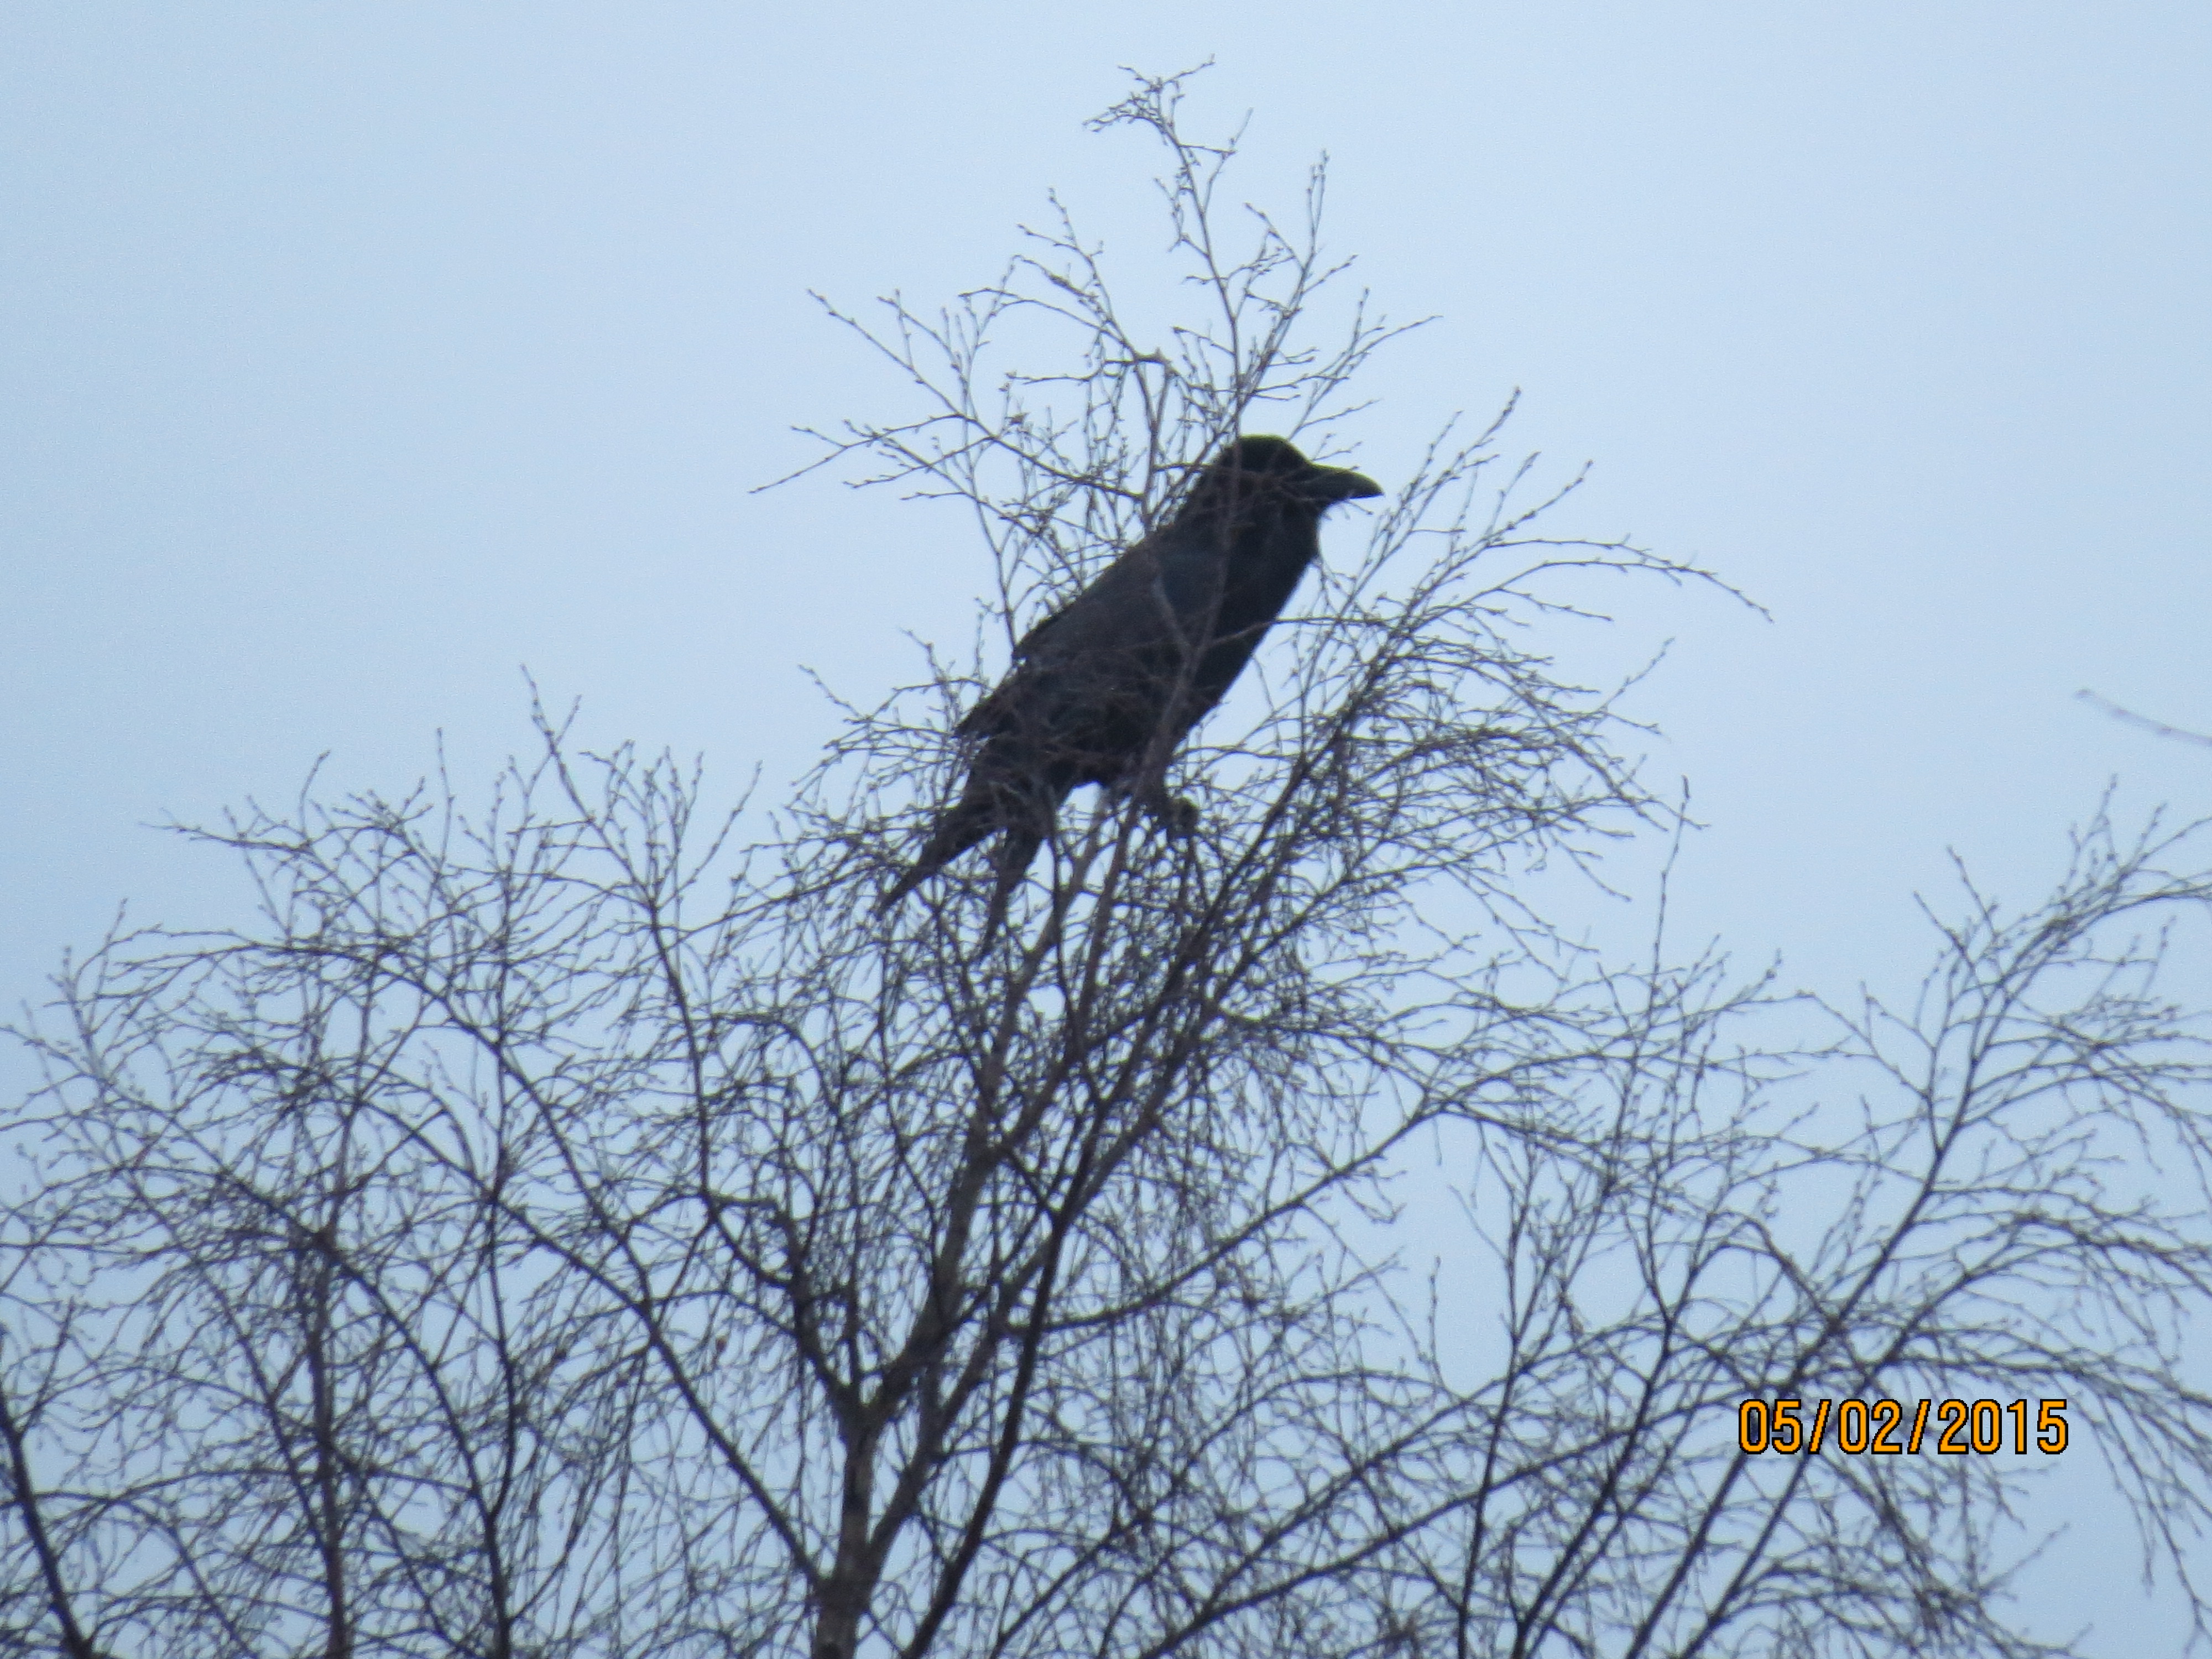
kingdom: Animalia
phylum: Chordata
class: Aves
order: Passeriformes
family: Corvidae
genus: Corvus
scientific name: Corvus corax
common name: Common raven
